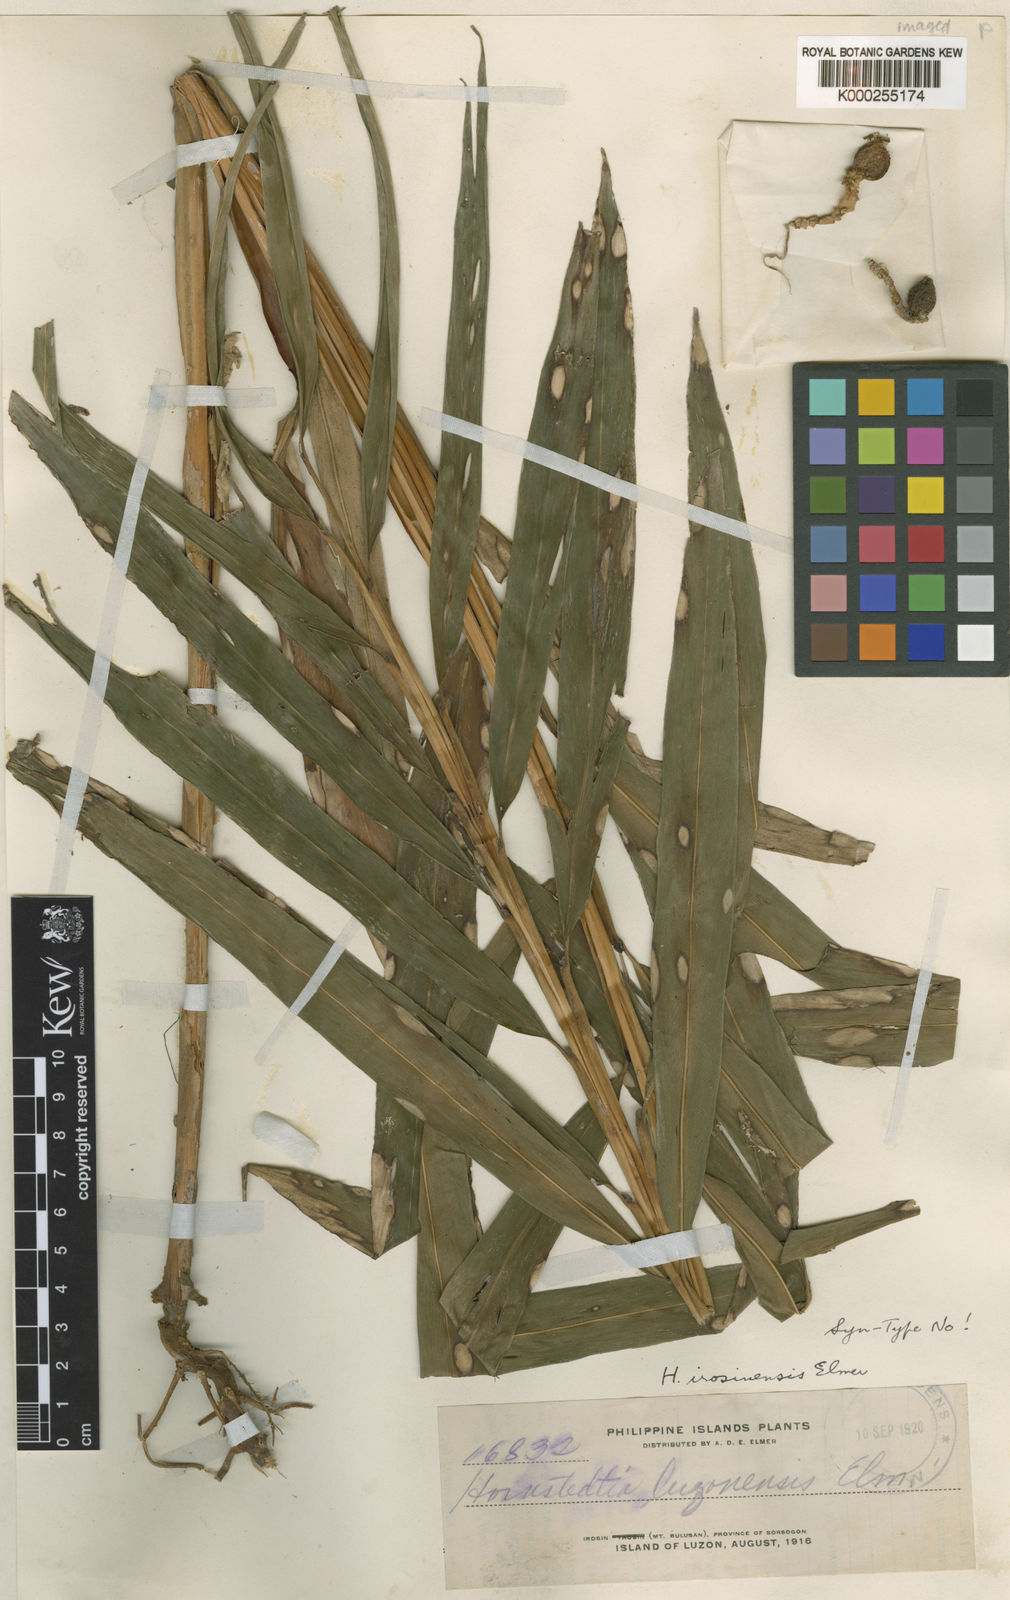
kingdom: Plantae
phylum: Tracheophyta
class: Liliopsida
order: Zingiberales
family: Zingiberaceae
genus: Hornstedtia
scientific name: Hornstedtia irosinensis
